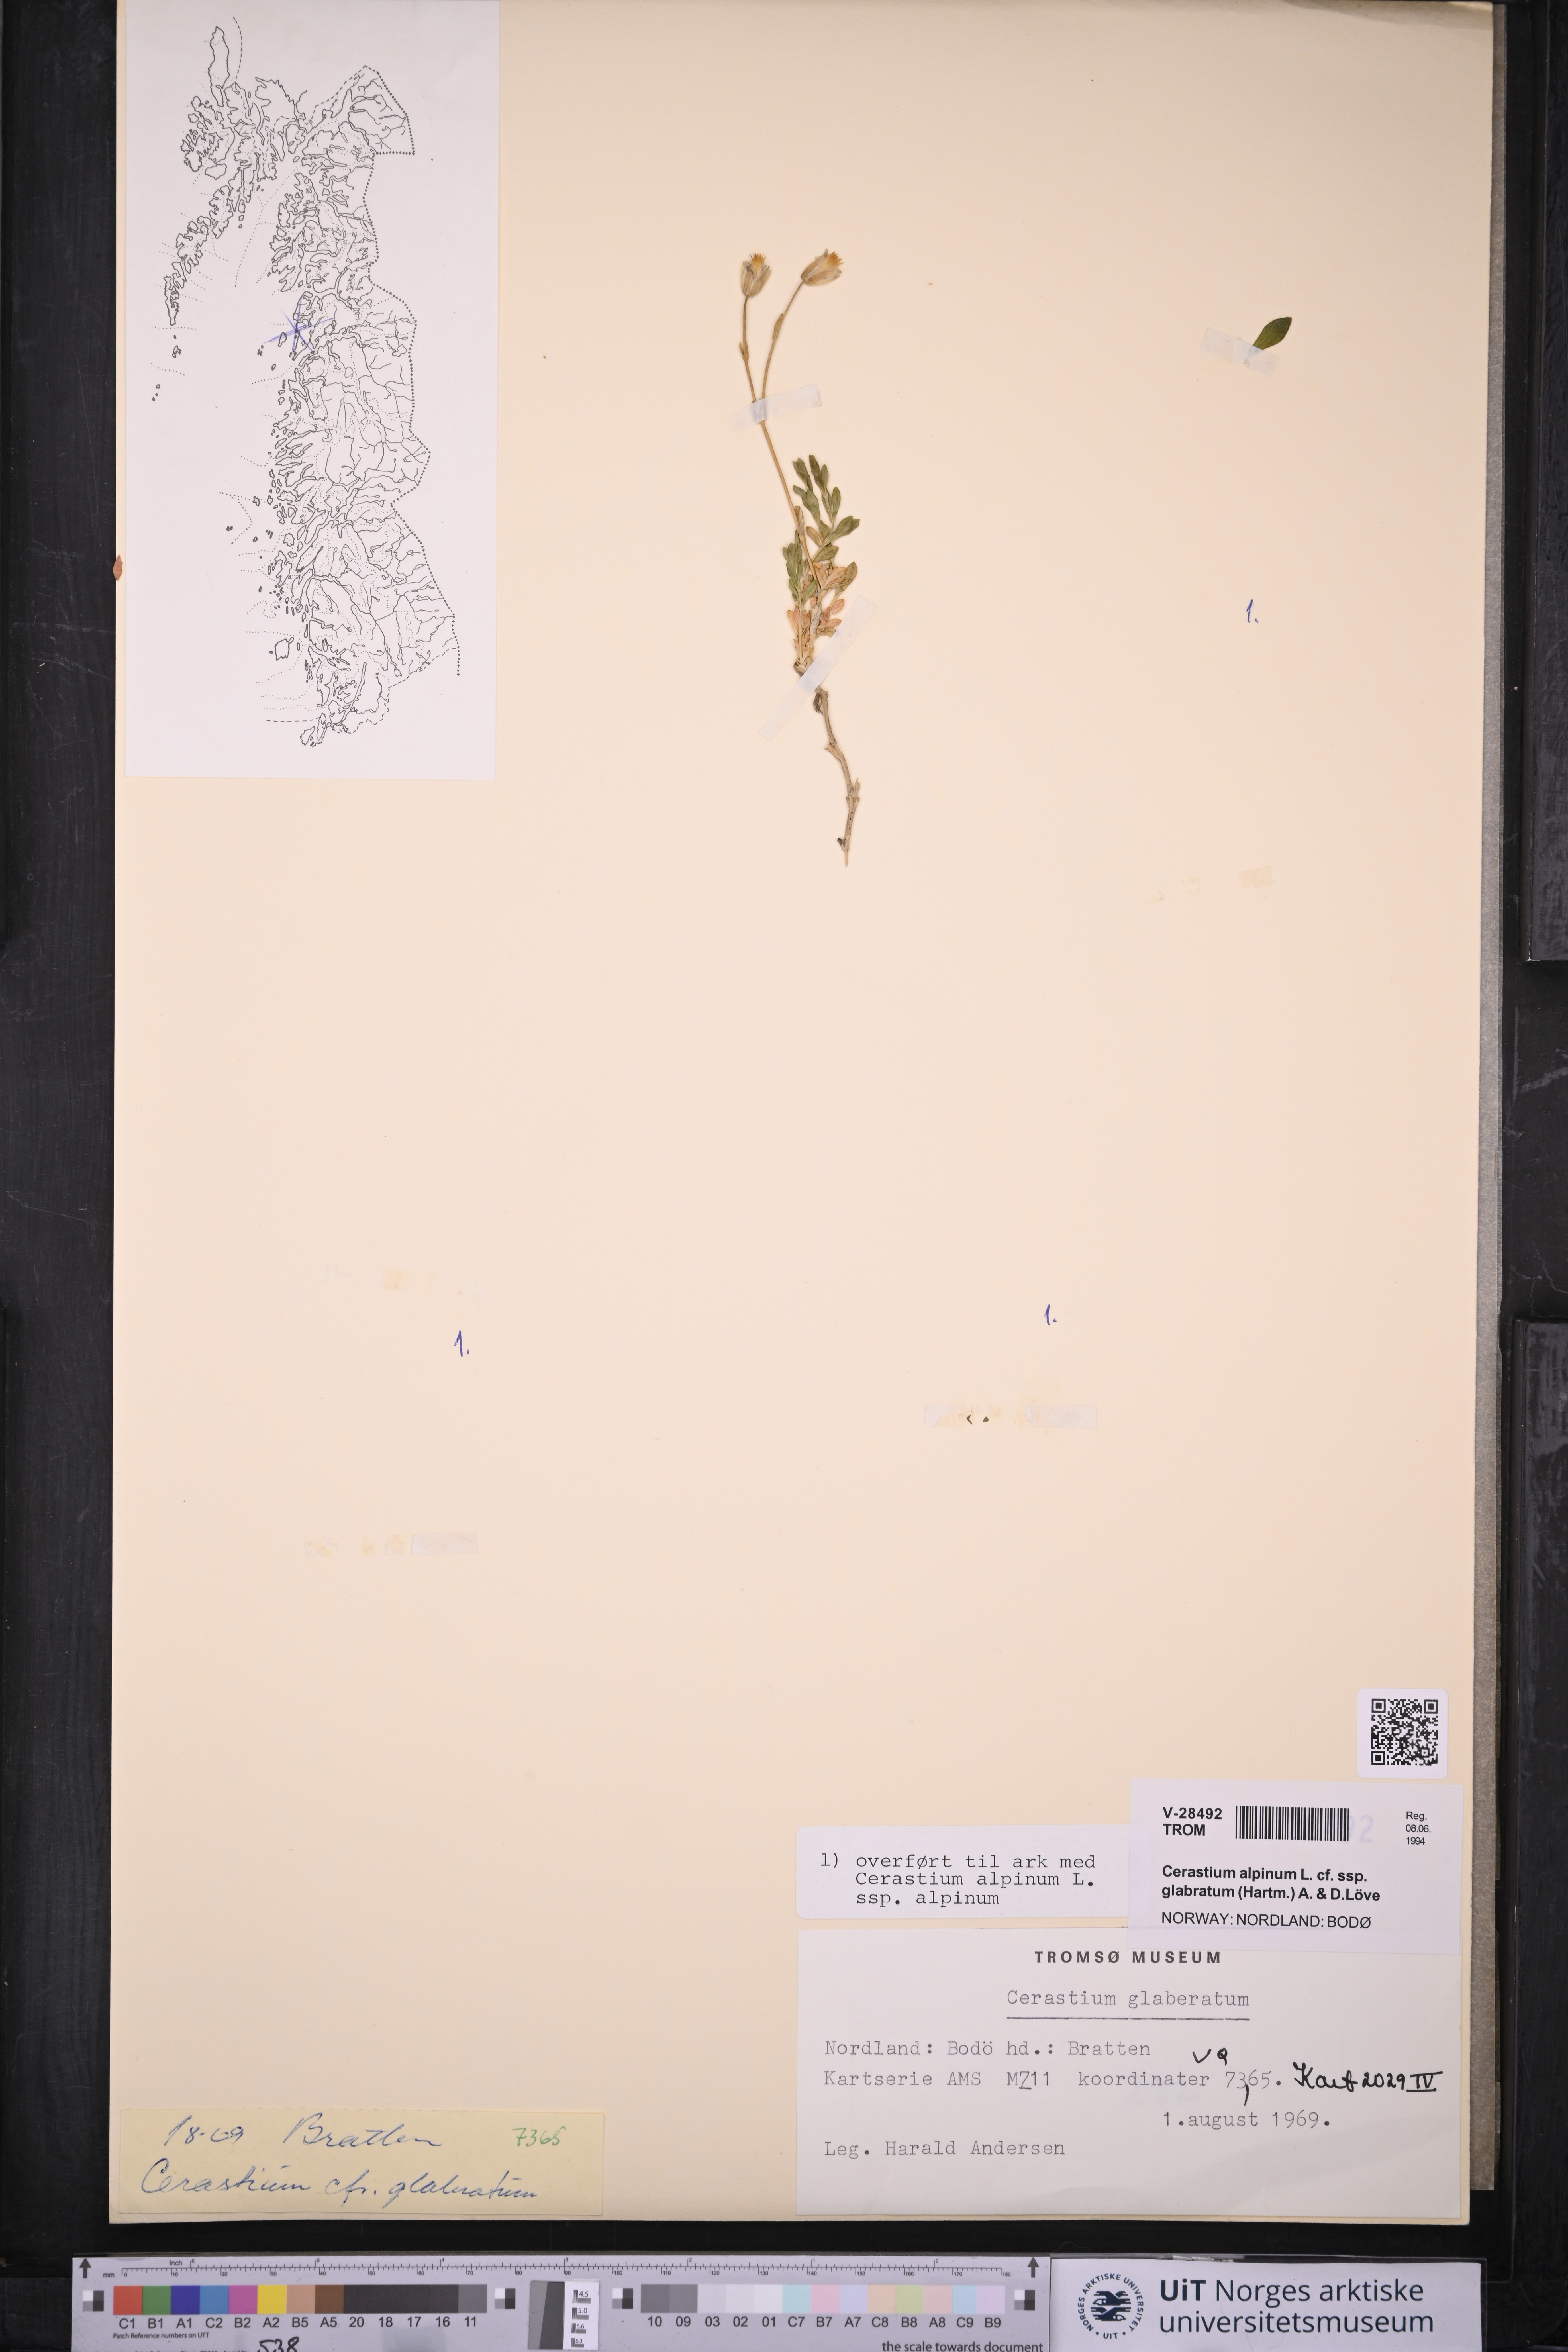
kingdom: Plantae
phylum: Tracheophyta
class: Magnoliopsida
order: Caryophyllales
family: Caryophyllaceae
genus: Cerastium
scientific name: Cerastium alpinum
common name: Alpine mouse-ear
